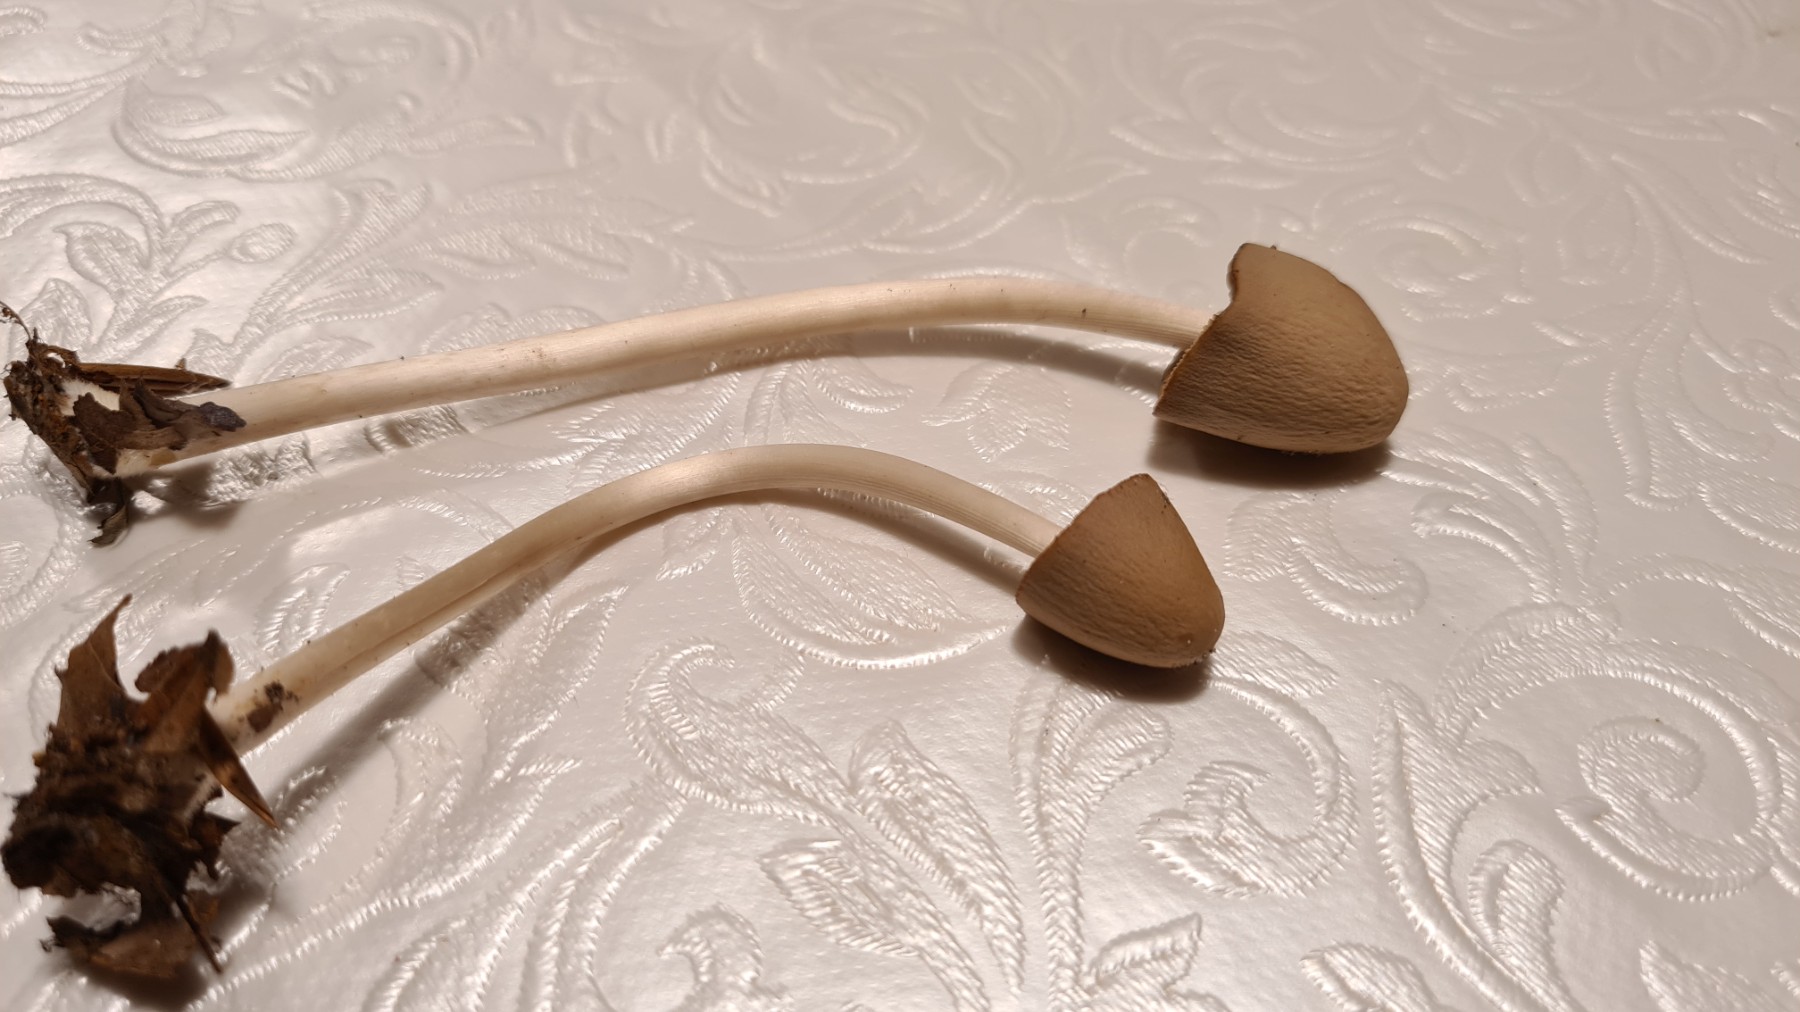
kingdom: Fungi
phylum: Basidiomycota
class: Agaricomycetes
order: Agaricales
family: Psathyrellaceae
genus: Parasola
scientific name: Parasola conopilea
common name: kegle-hjulhat
